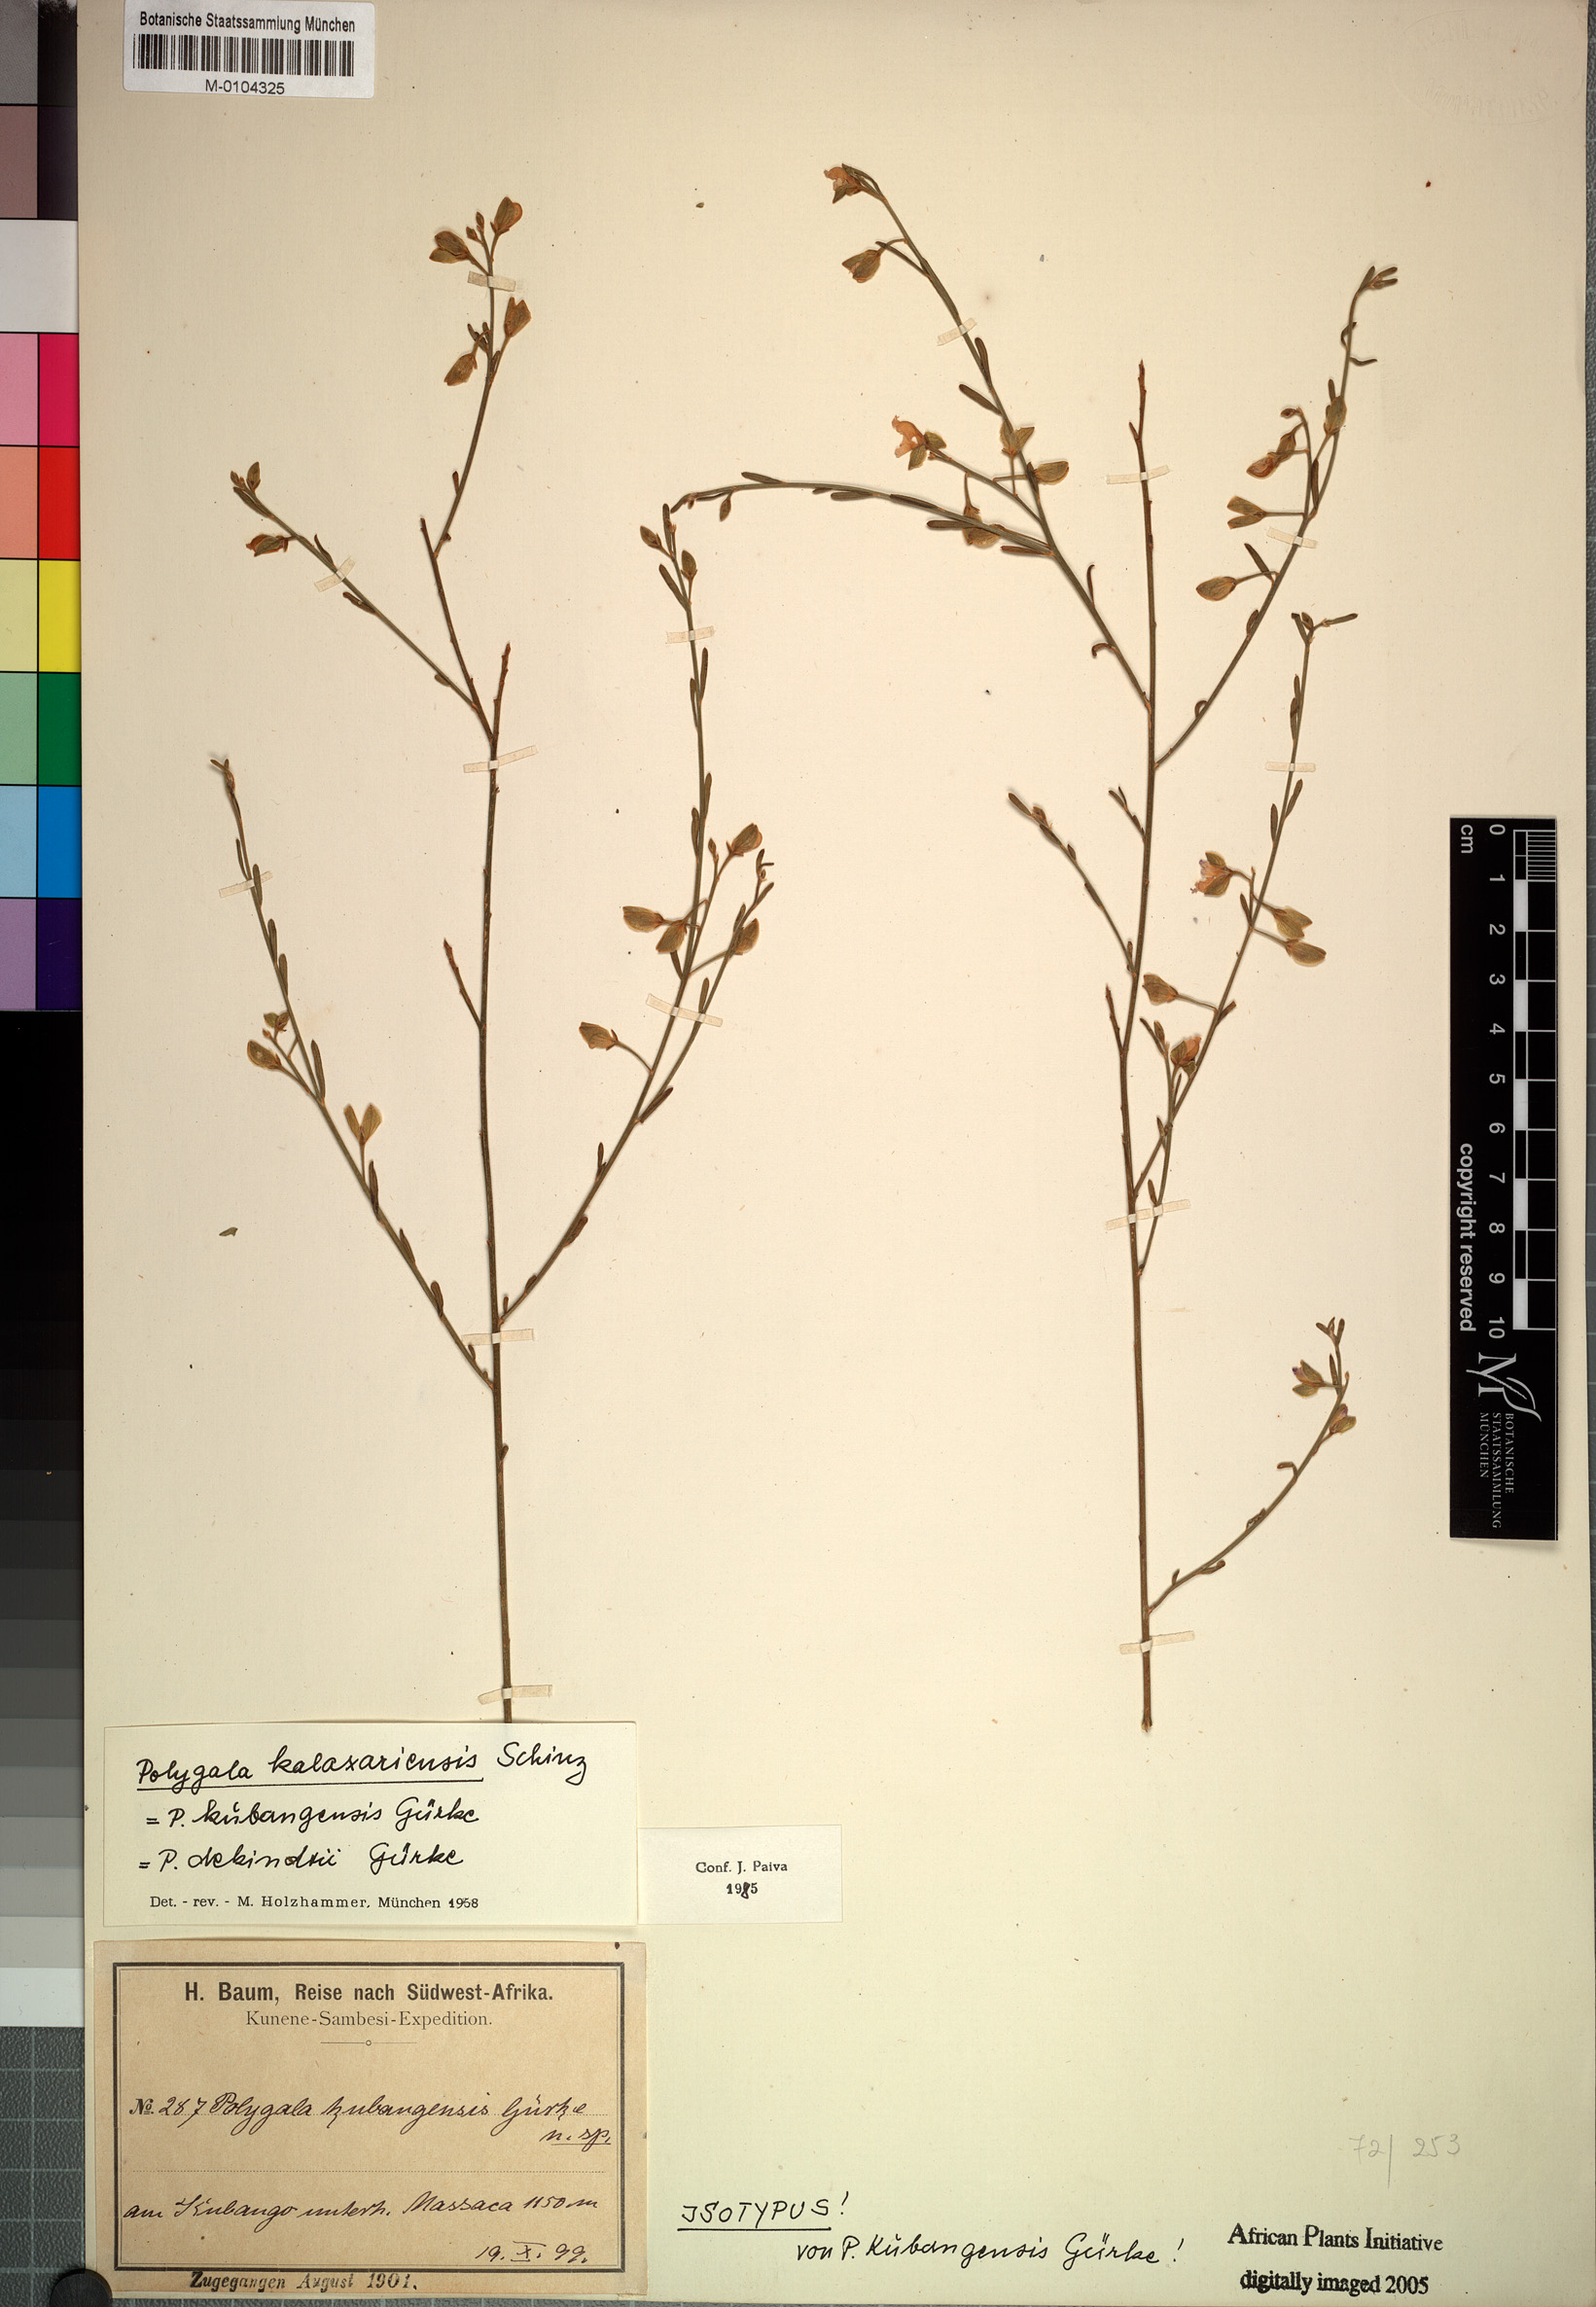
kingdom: Plantae
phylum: Tracheophyta
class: Magnoliopsida
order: Fabales
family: Polygalaceae
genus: Polygala
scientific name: Polygala kalaxariensis
